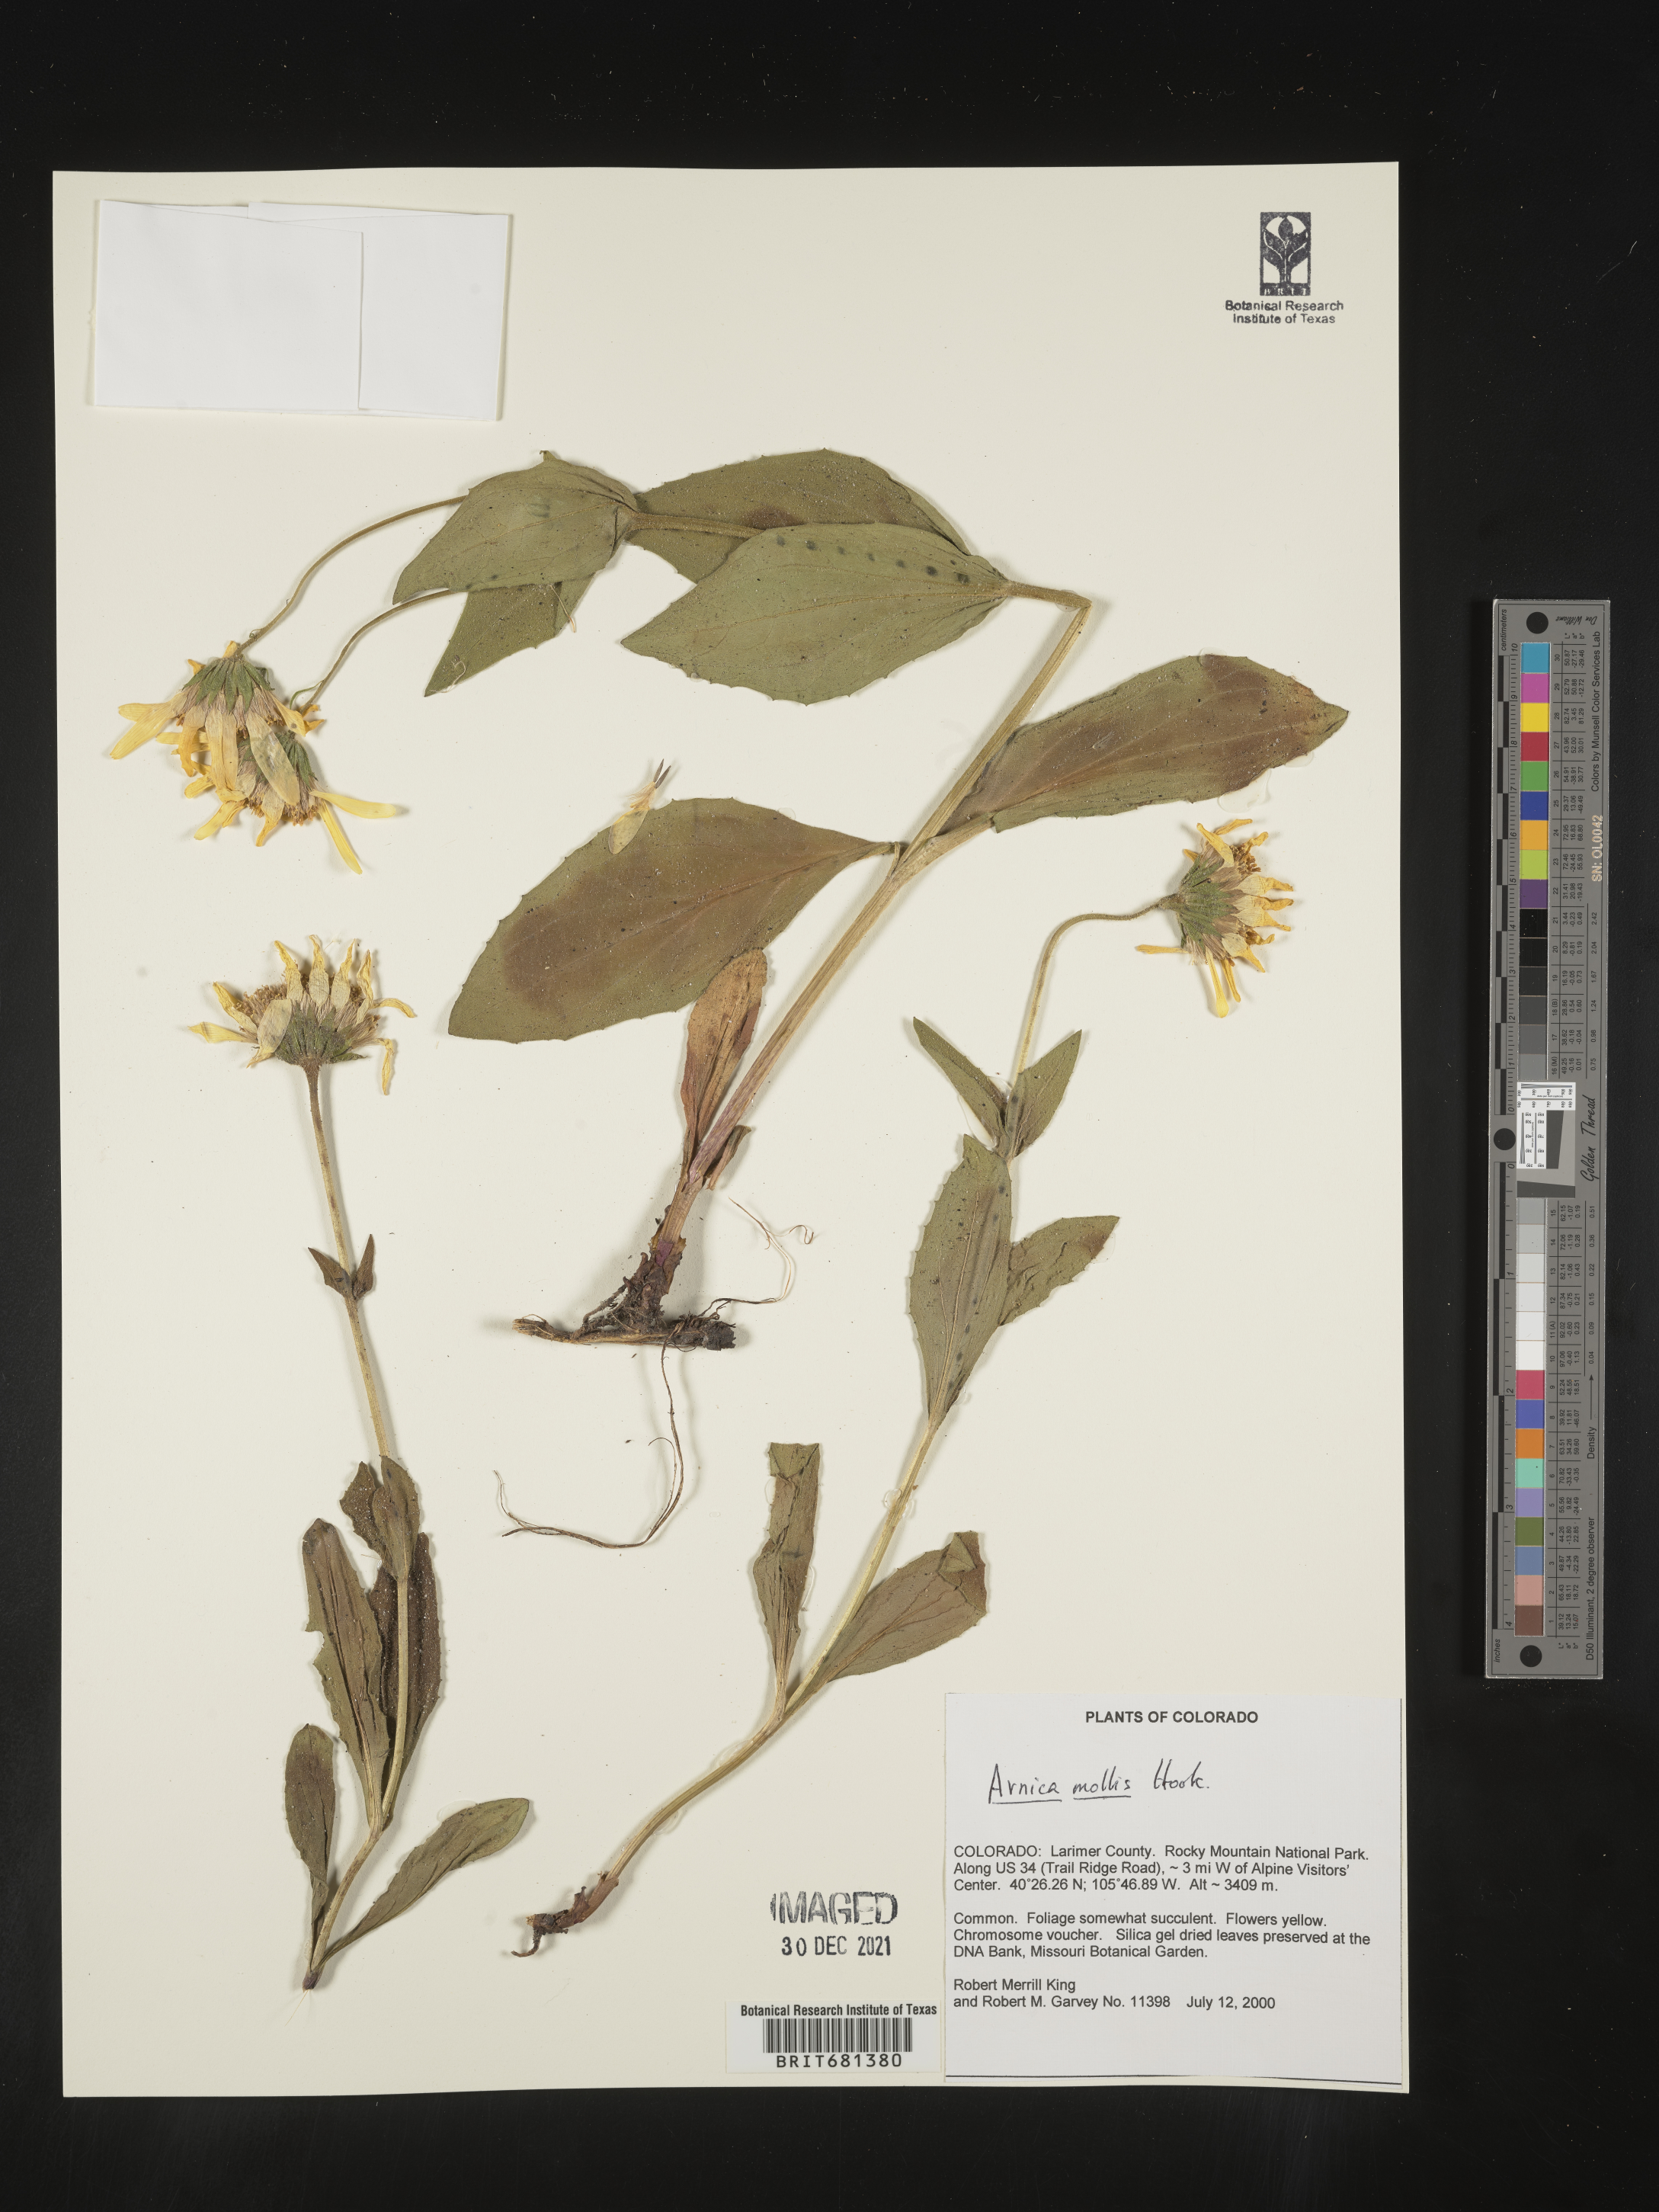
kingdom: Plantae
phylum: Tracheophyta
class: Magnoliopsida
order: Asterales
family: Asteraceae
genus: Arnica
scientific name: Arnica mollis
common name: Hairy arnica
